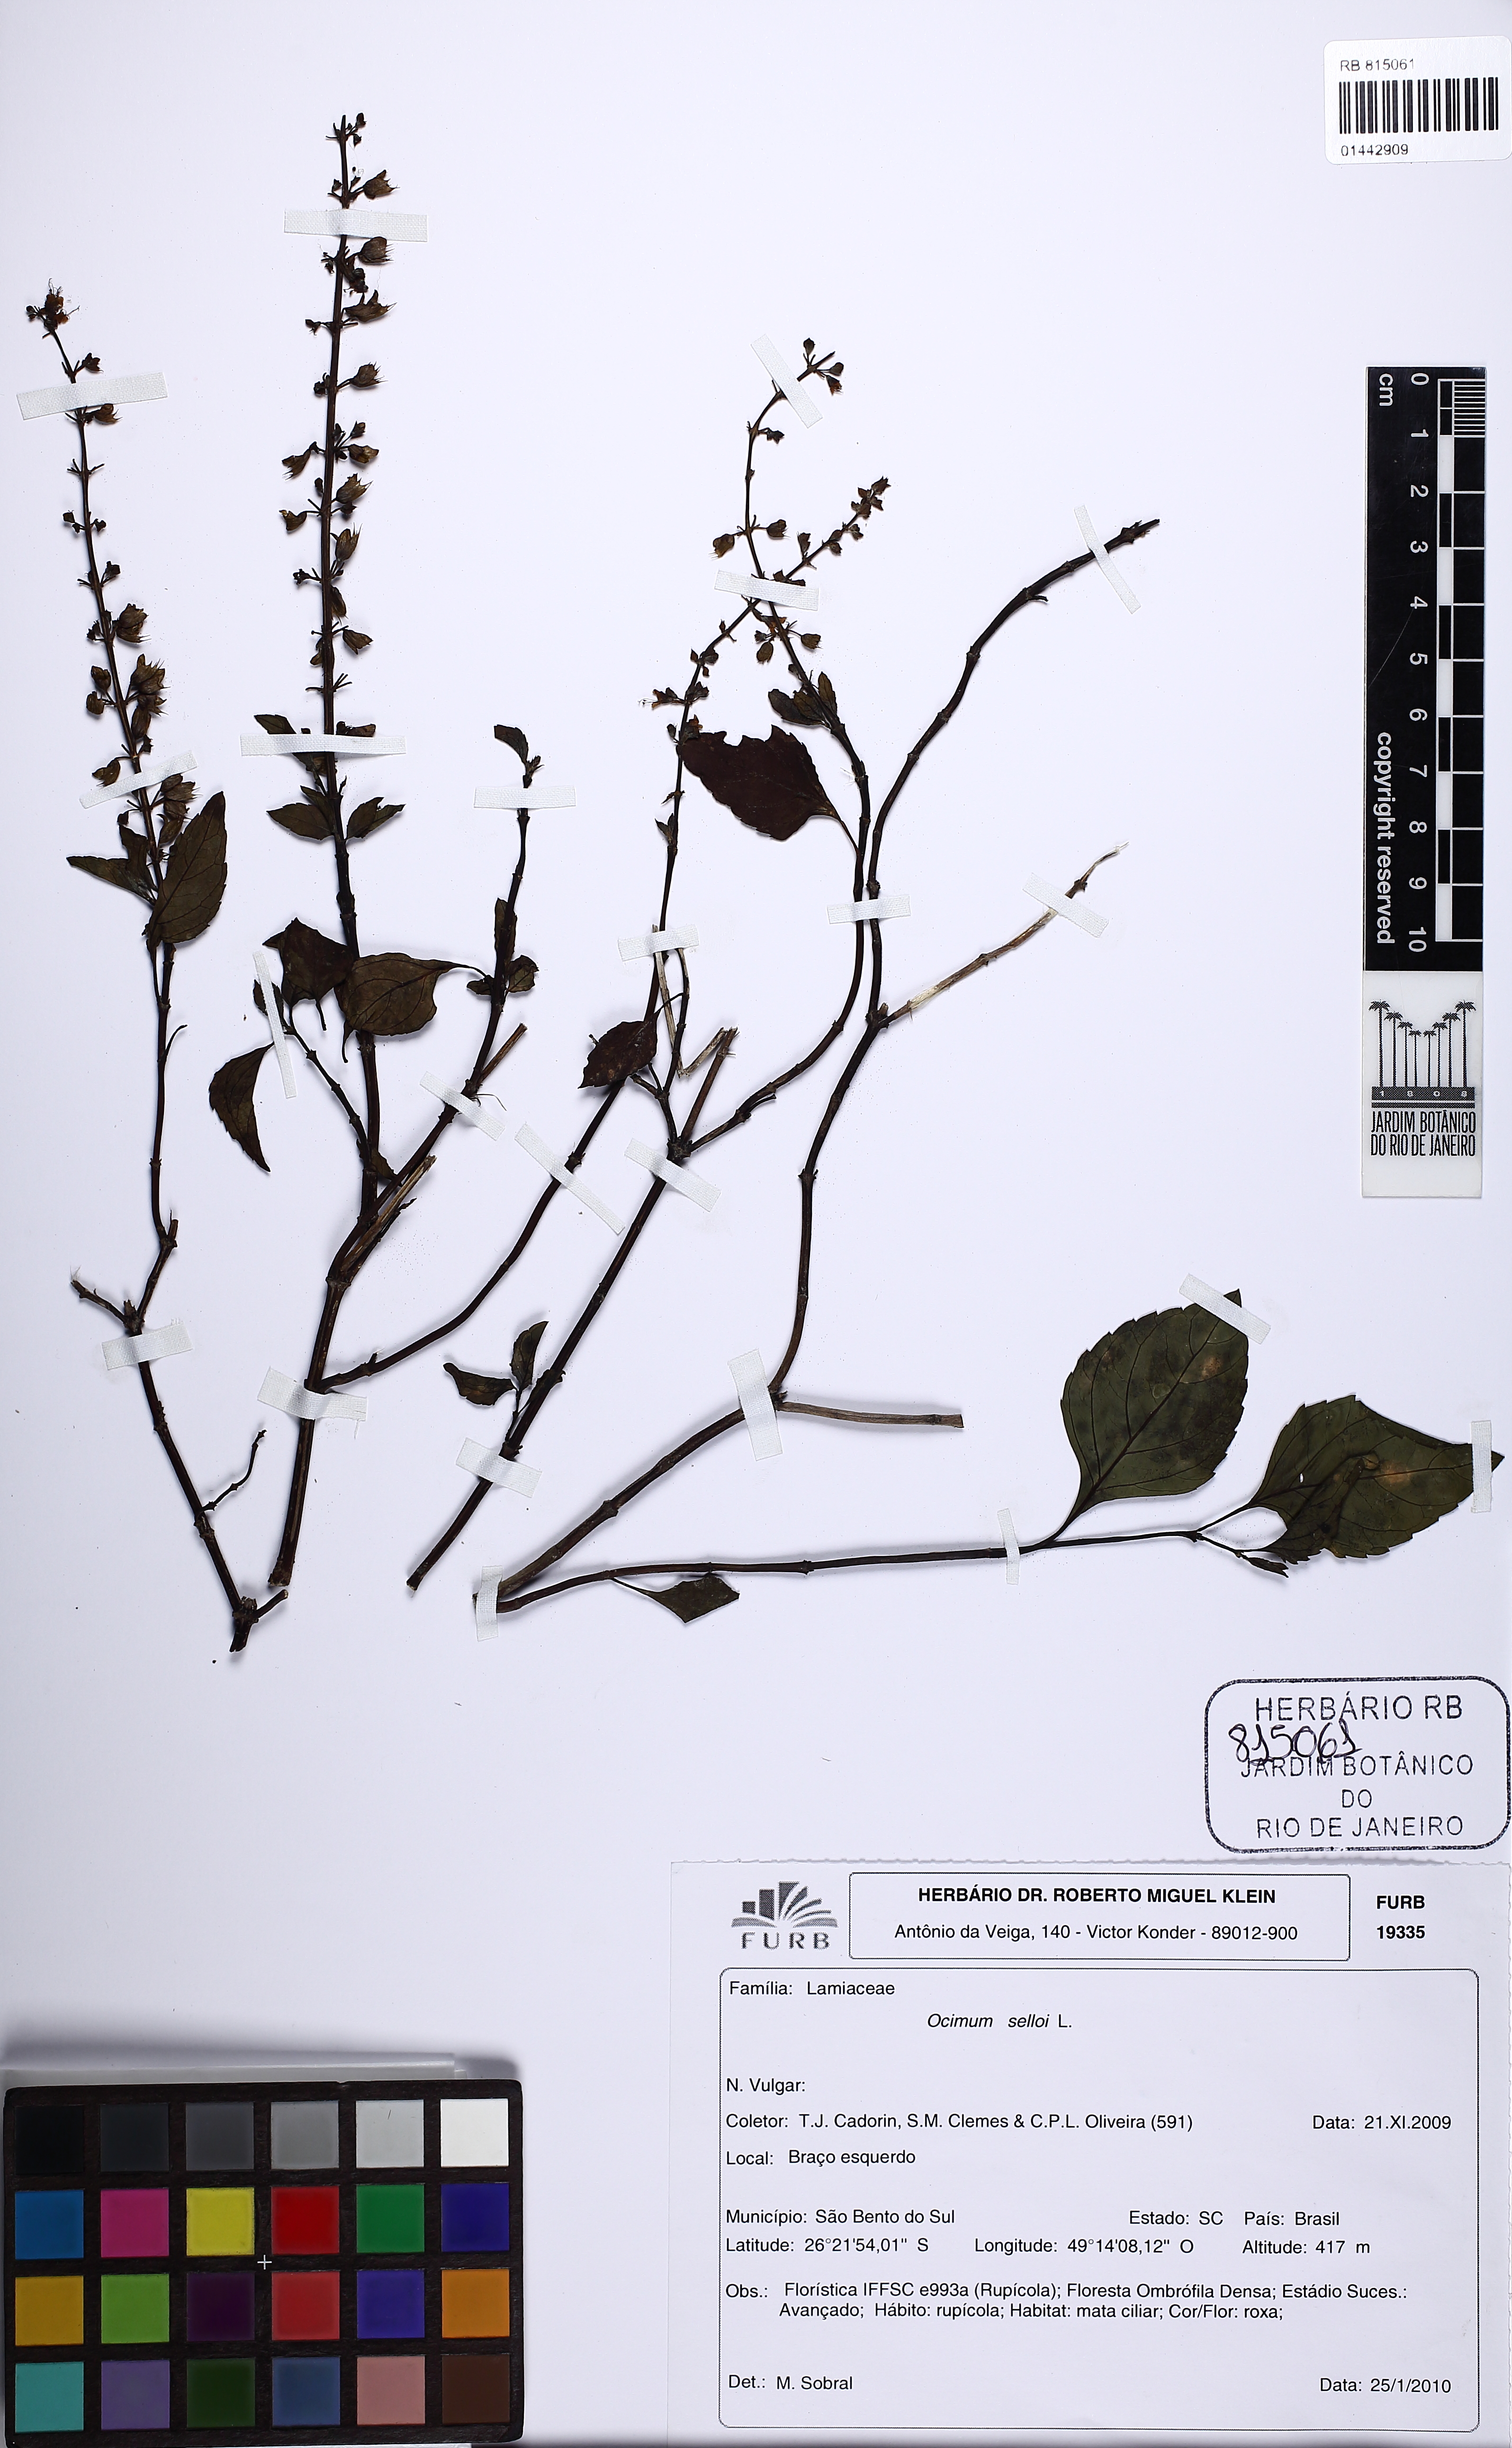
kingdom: Plantae
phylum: Tracheophyta
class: Magnoliopsida
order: Lamiales
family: Lamiaceae
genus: Ocimum
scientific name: Ocimum carnosum
